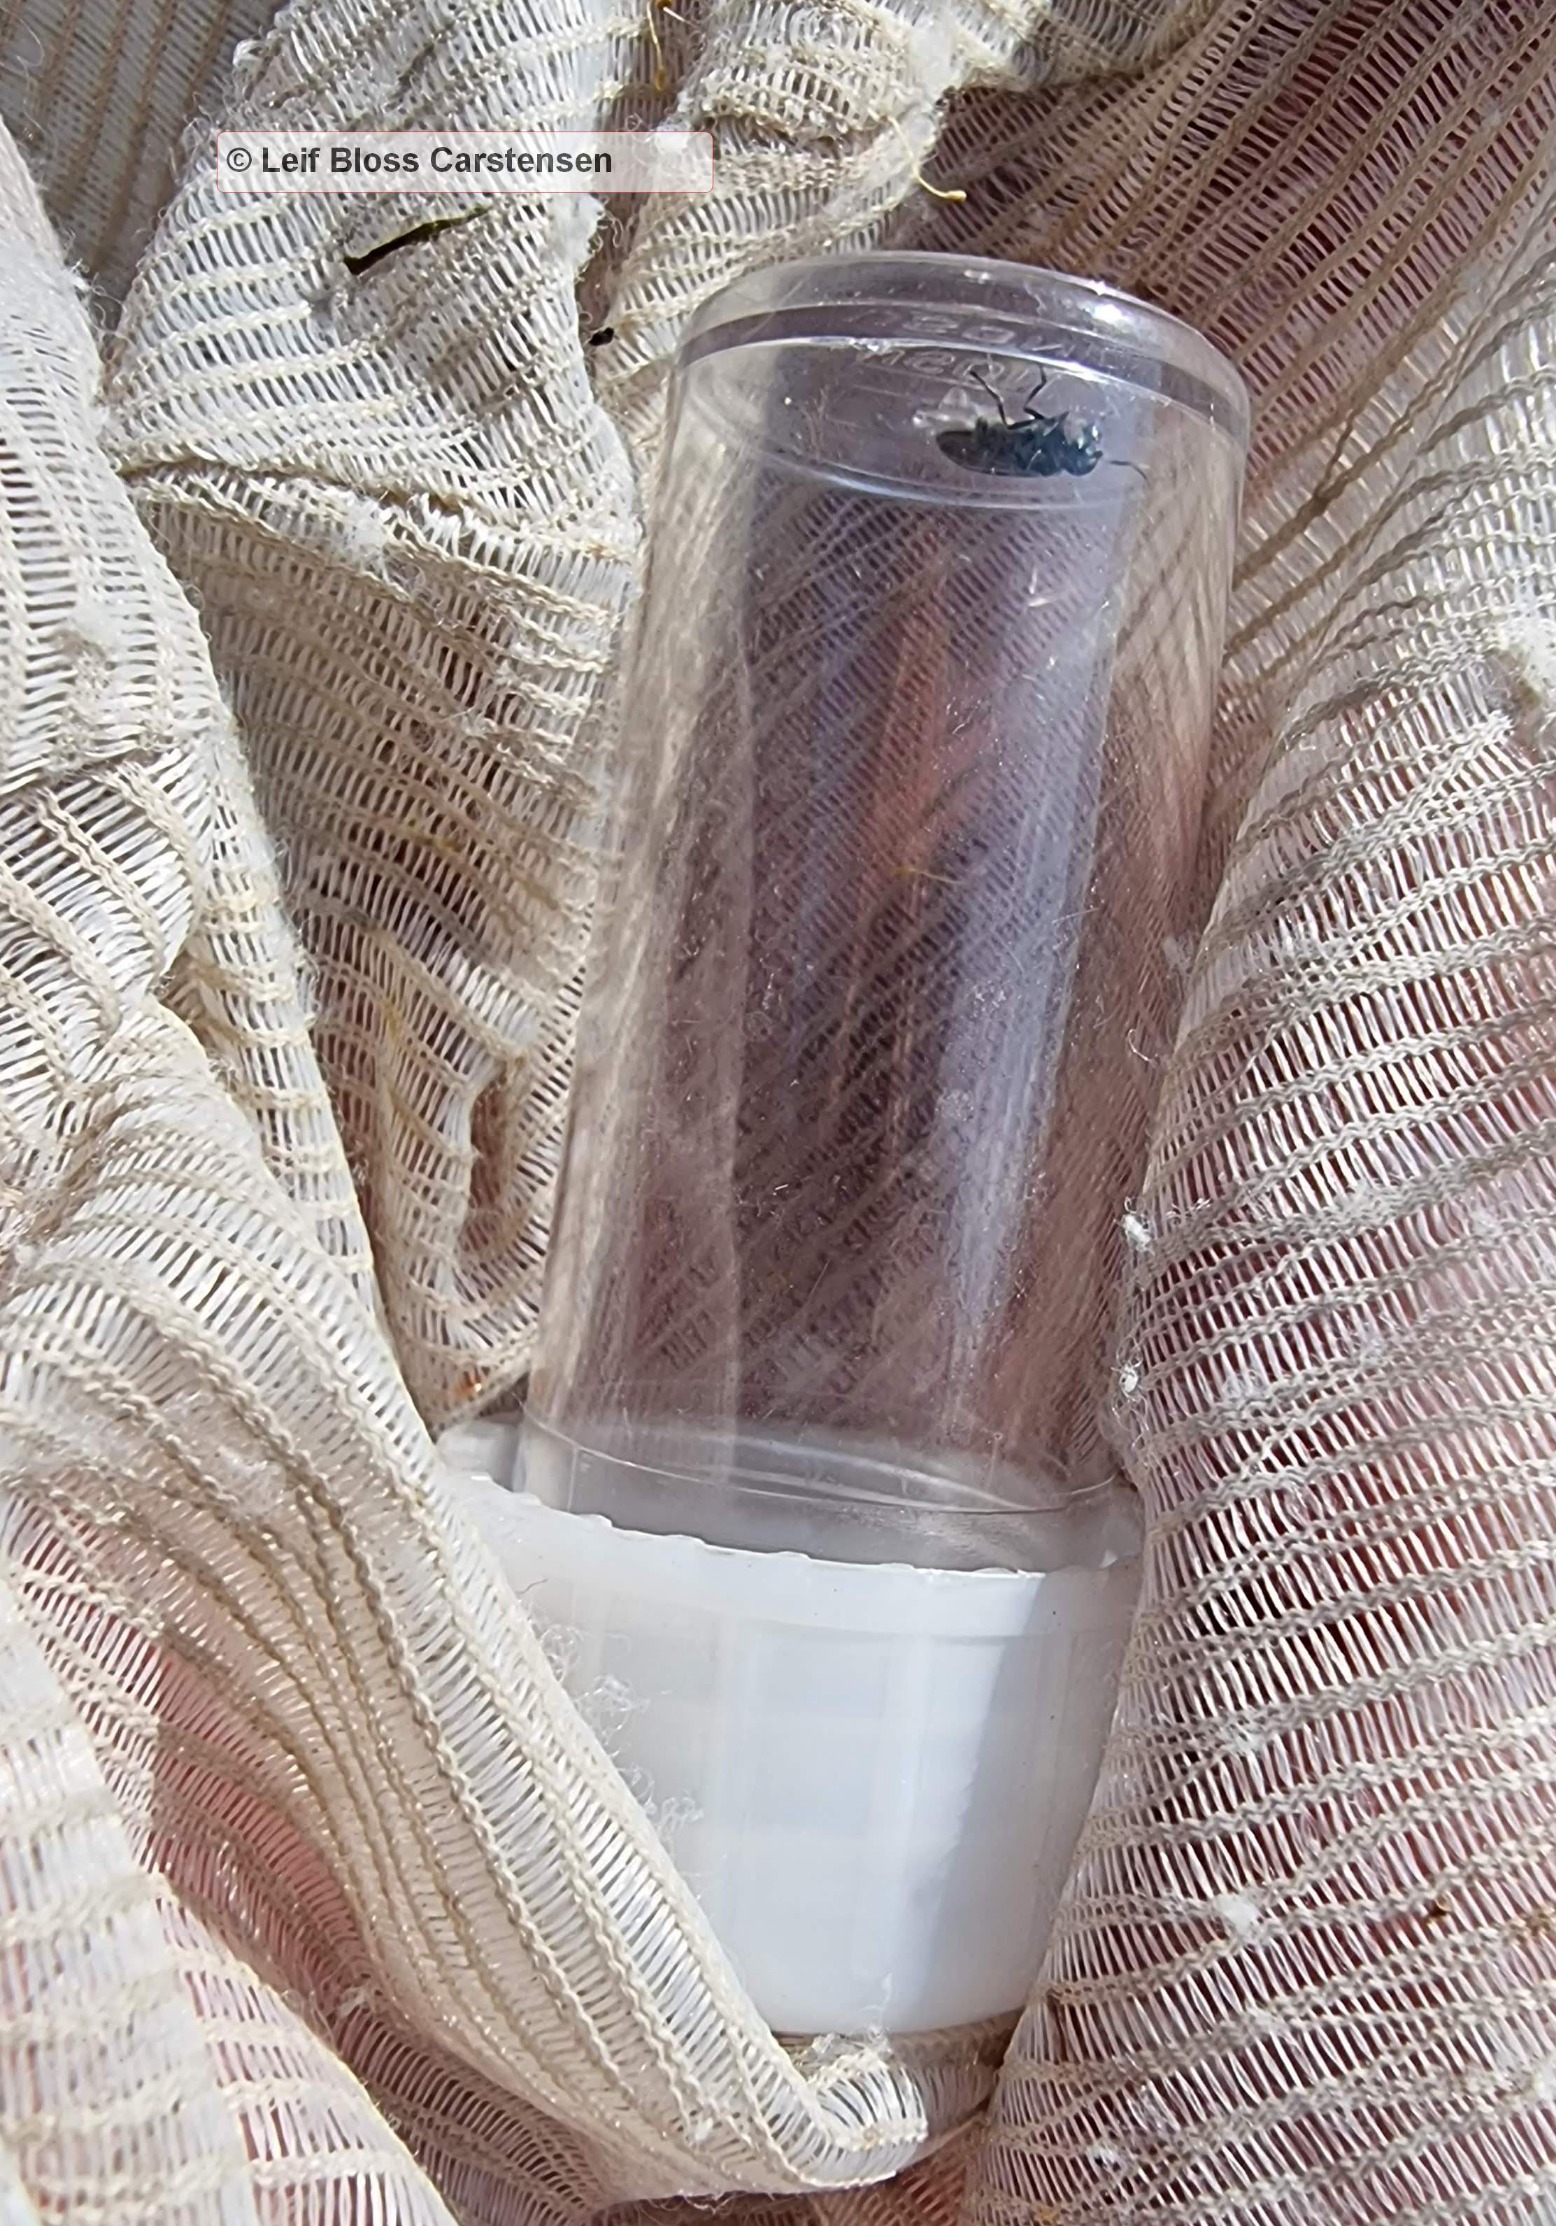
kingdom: Animalia
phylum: Arthropoda
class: Insecta
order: Diptera
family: Syrphidae
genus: Platycheirus
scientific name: Platycheirus discimanus
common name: Skive-bredfodsflue
